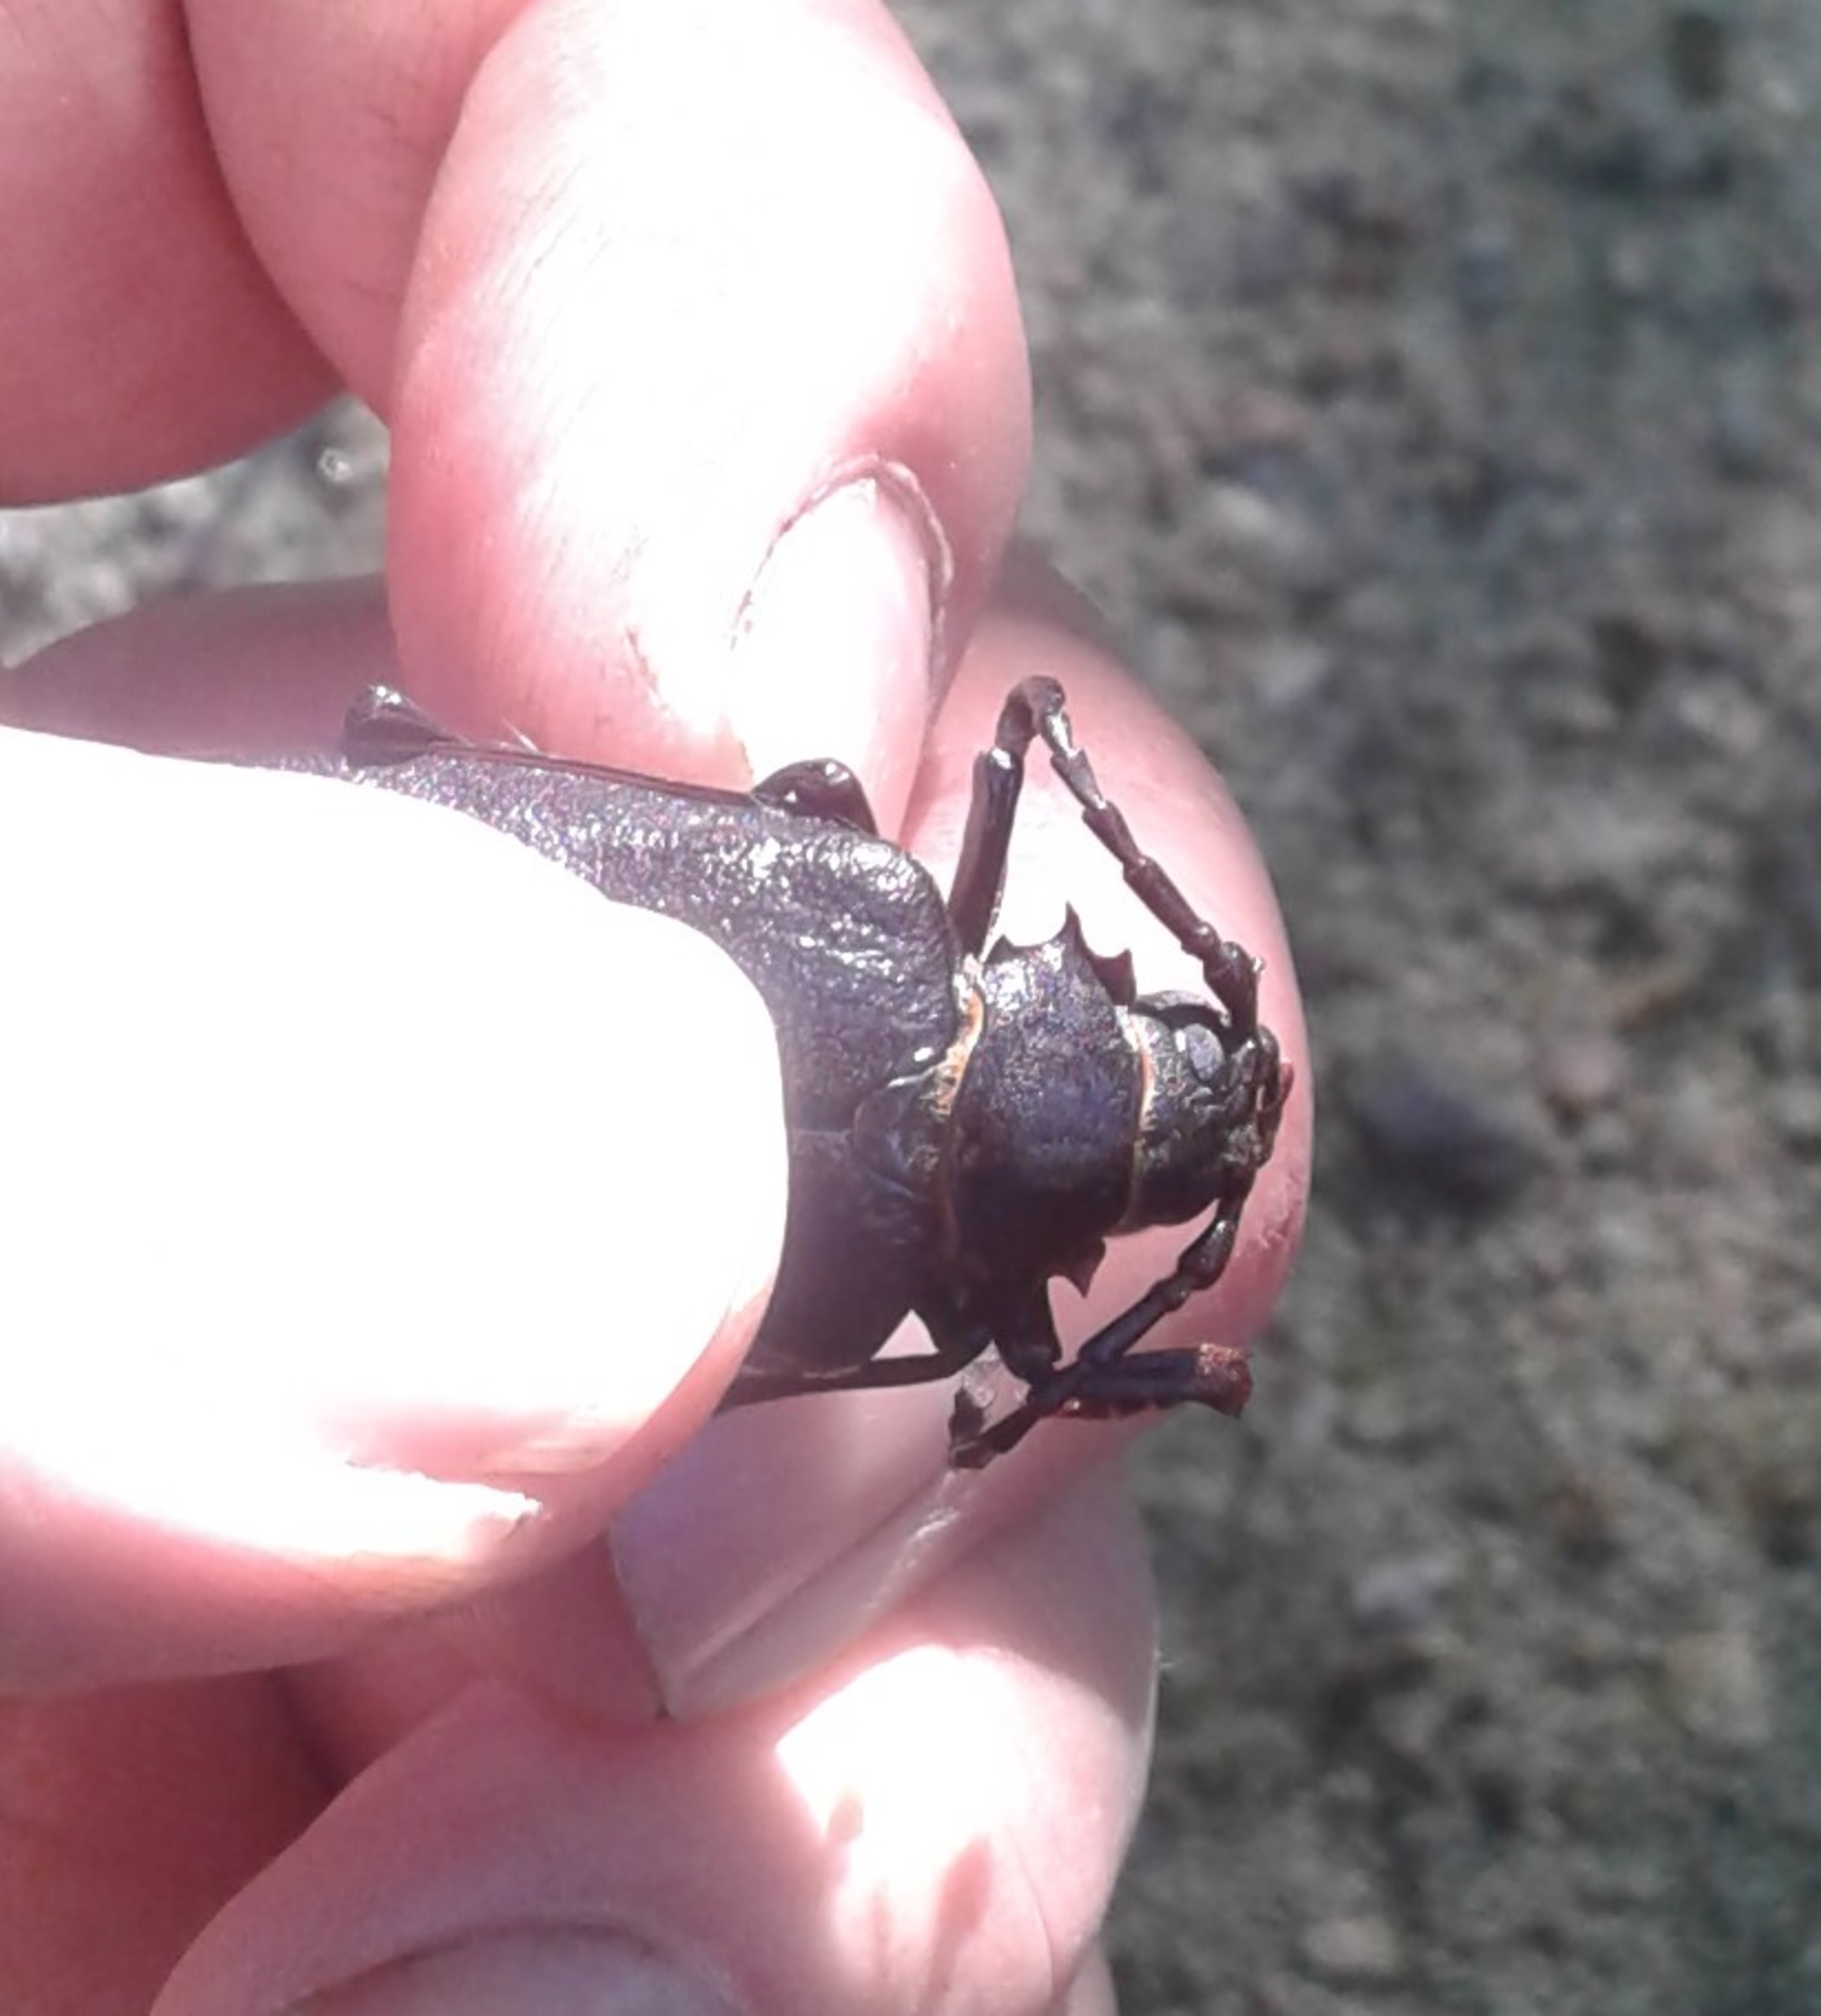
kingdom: Animalia
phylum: Arthropoda
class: Insecta
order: Coleoptera
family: Cerambycidae
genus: Prionus
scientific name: Prionus coriarius
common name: Garver
